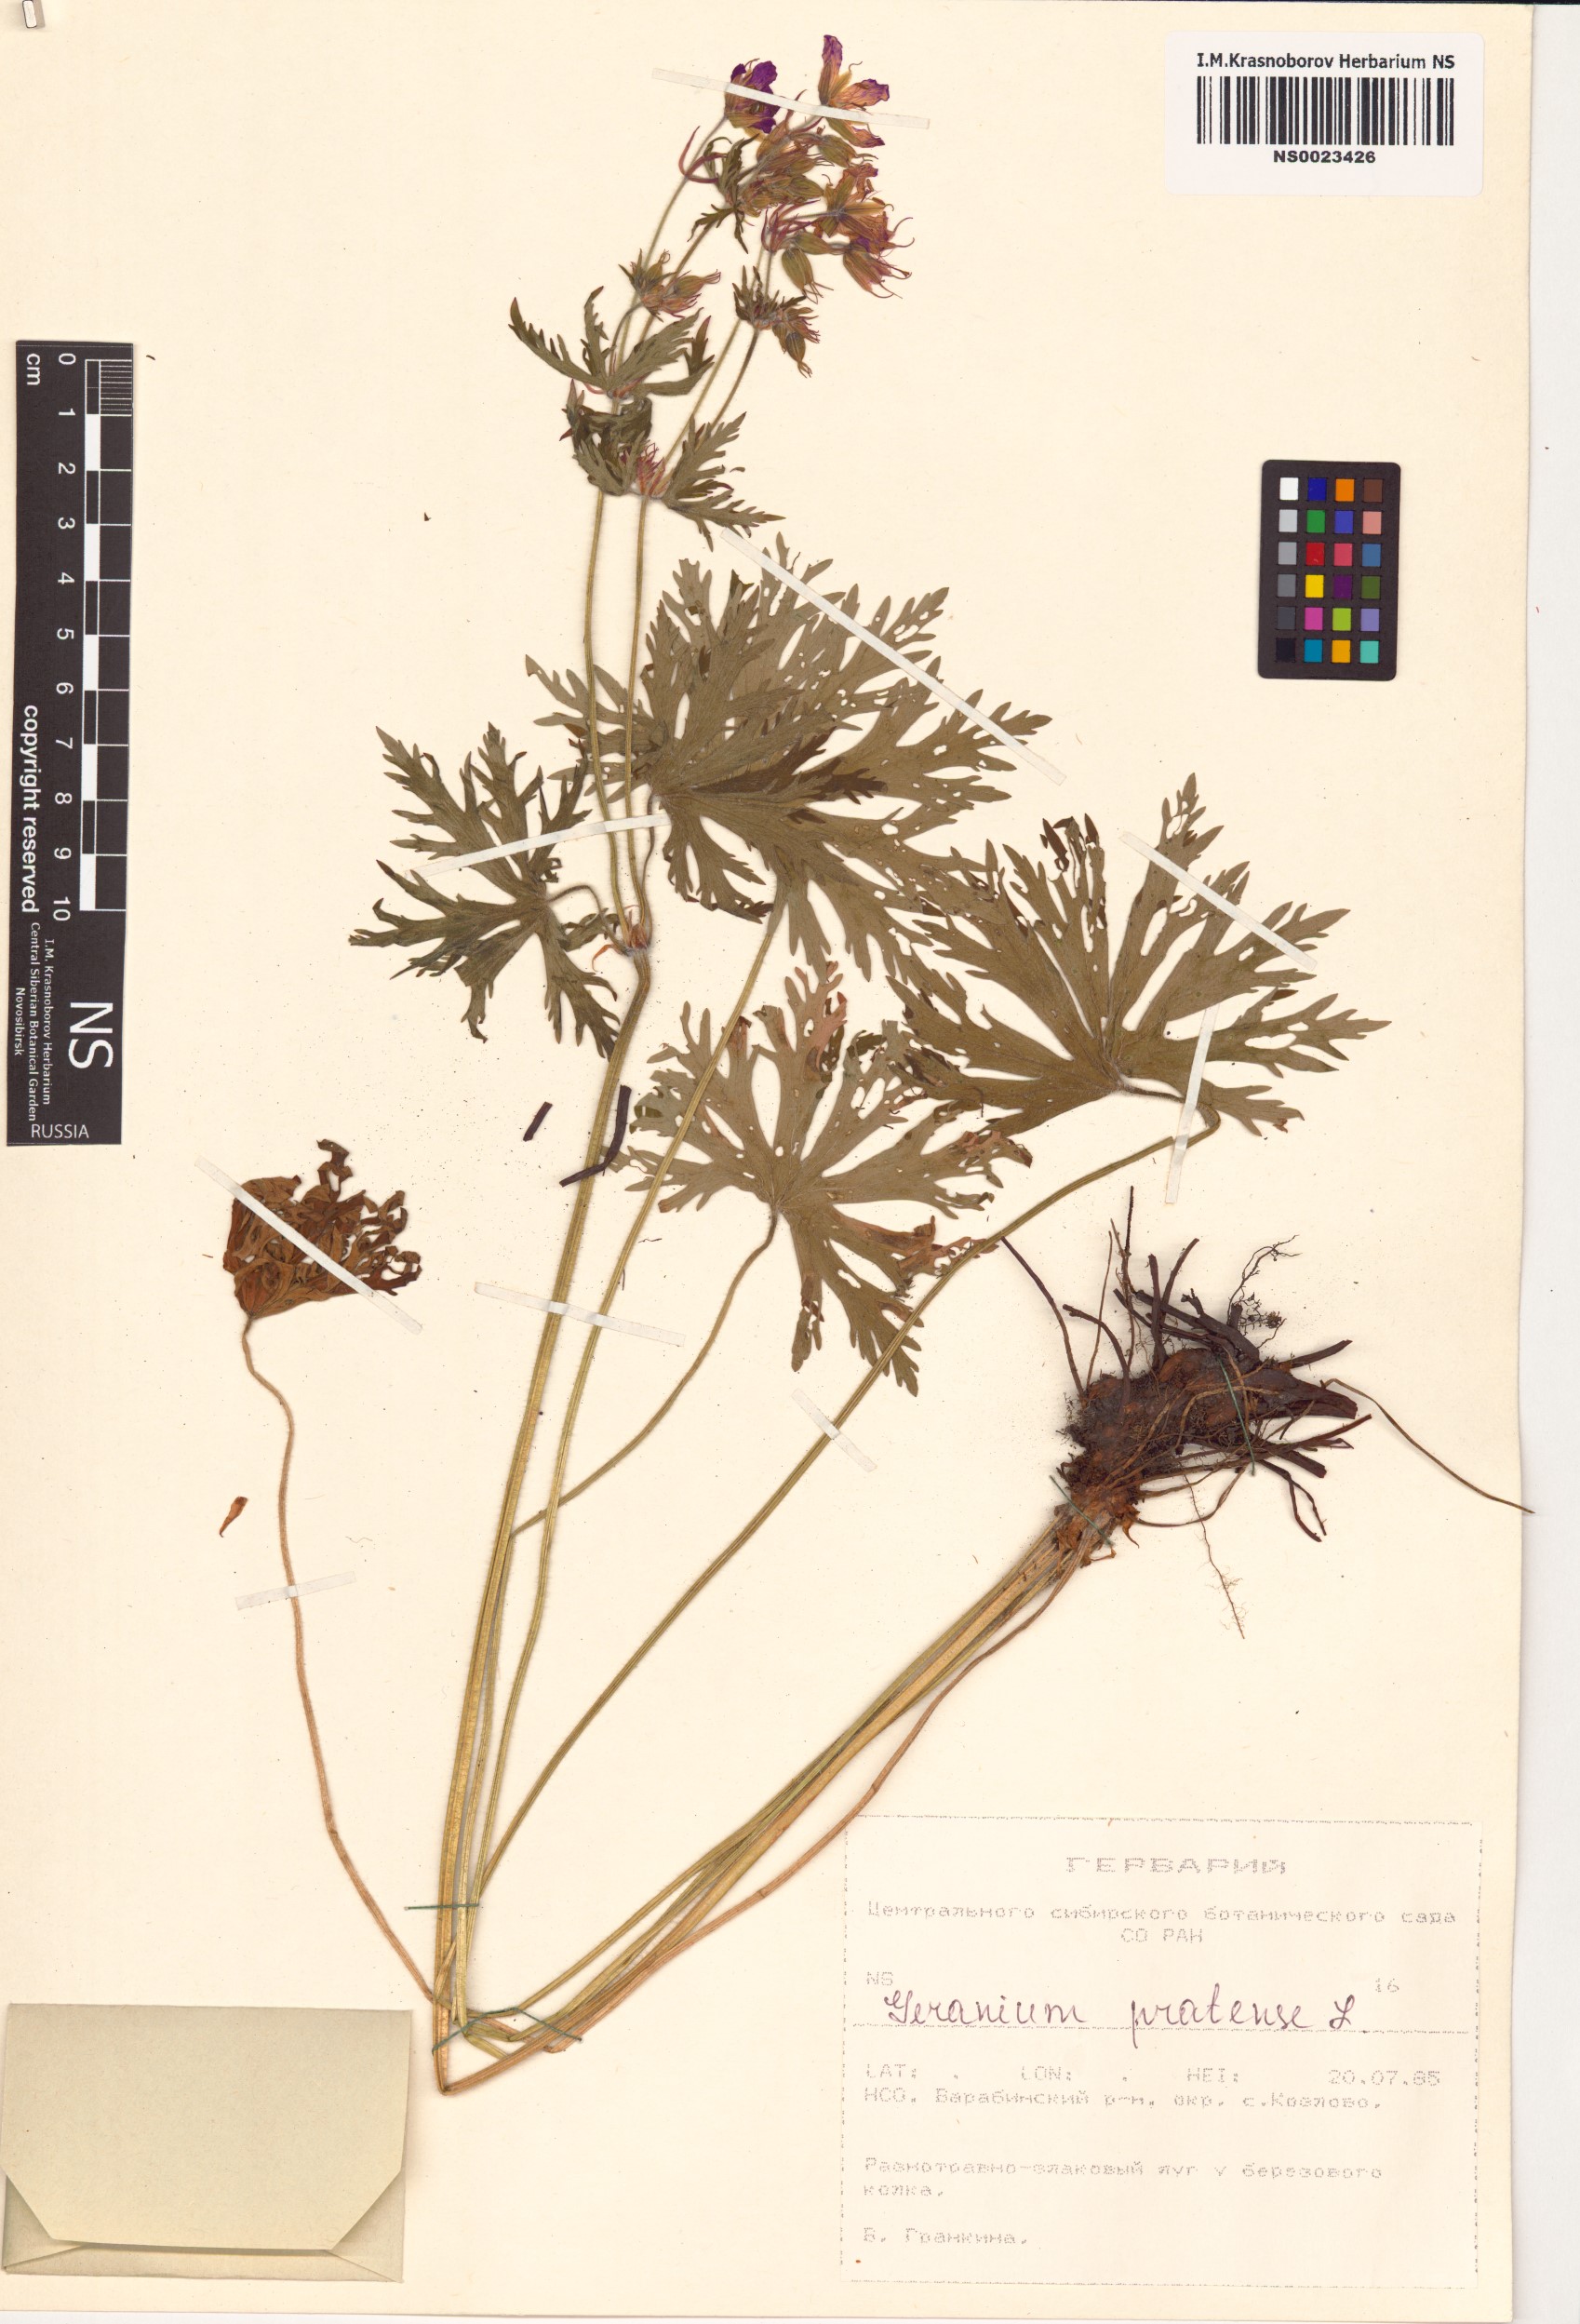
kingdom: Plantae
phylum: Tracheophyta
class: Magnoliopsida
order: Geraniales
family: Geraniaceae
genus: Geranium
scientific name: Geranium pratense
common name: Meadow crane's-bill
